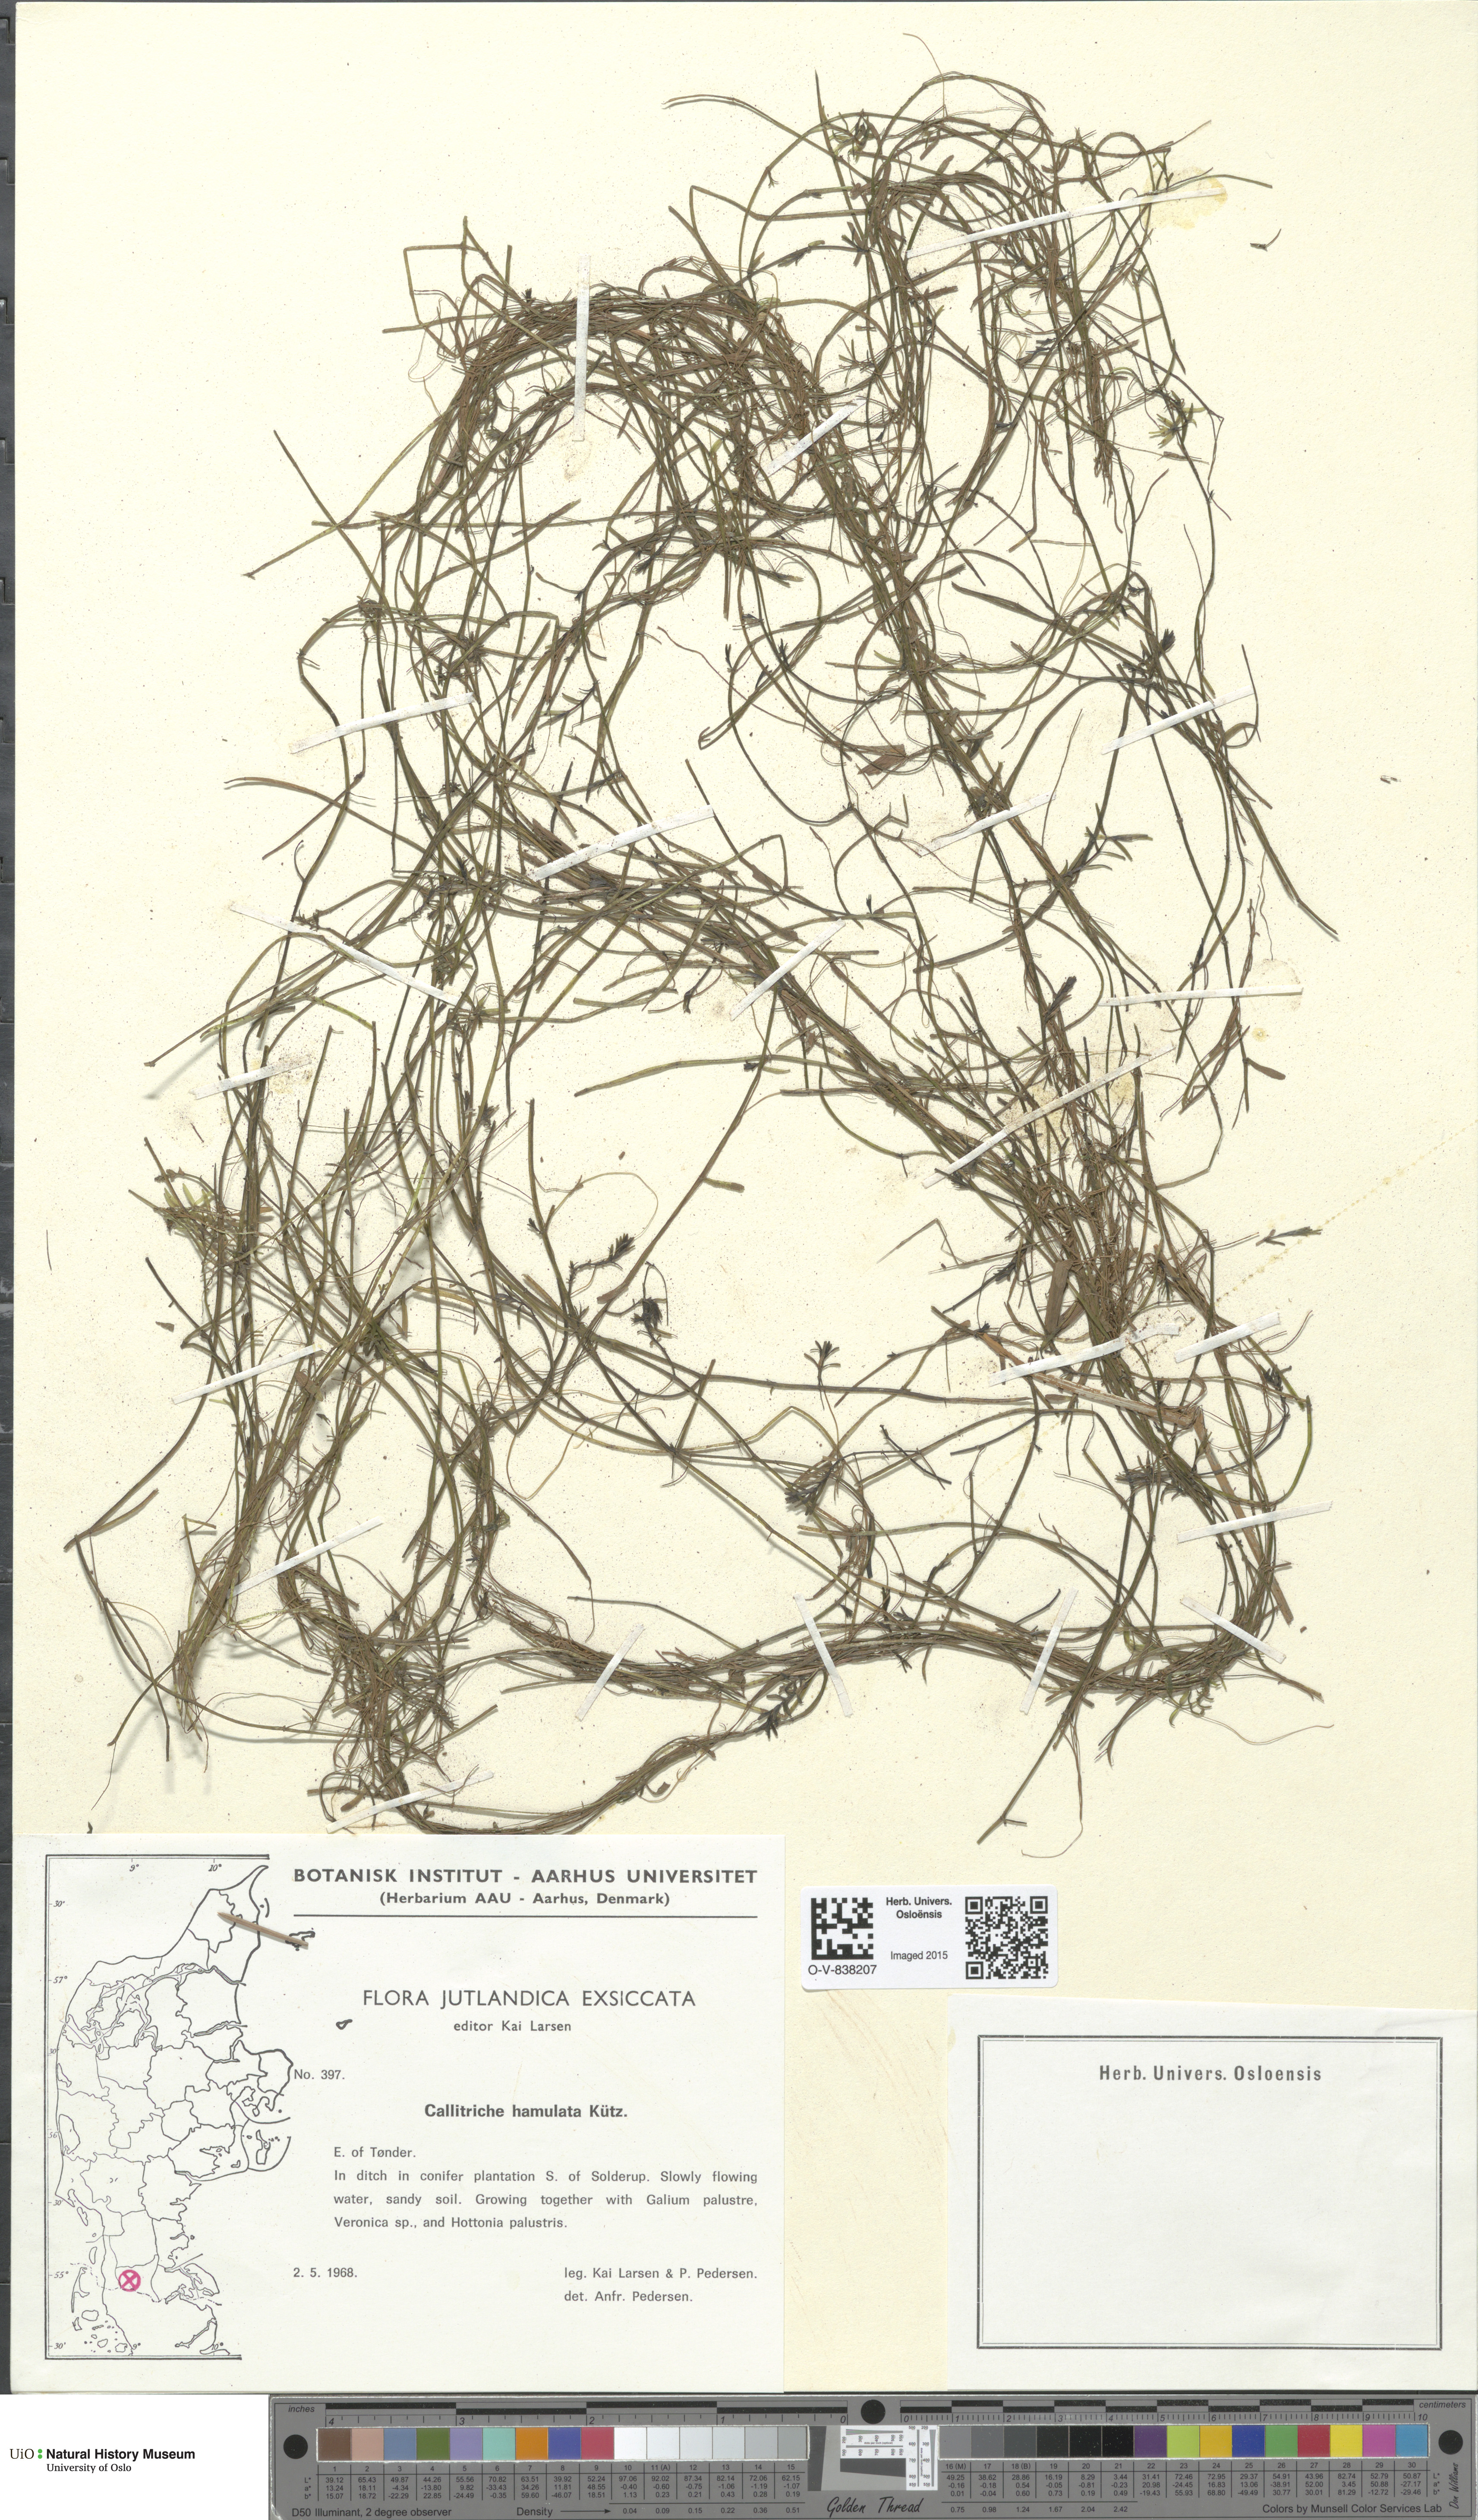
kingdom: Plantae
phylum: Tracheophyta
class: Magnoliopsida
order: Lamiales
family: Plantaginaceae
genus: Callitriche
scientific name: Callitriche hamulata
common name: Intermediate water-starwort
